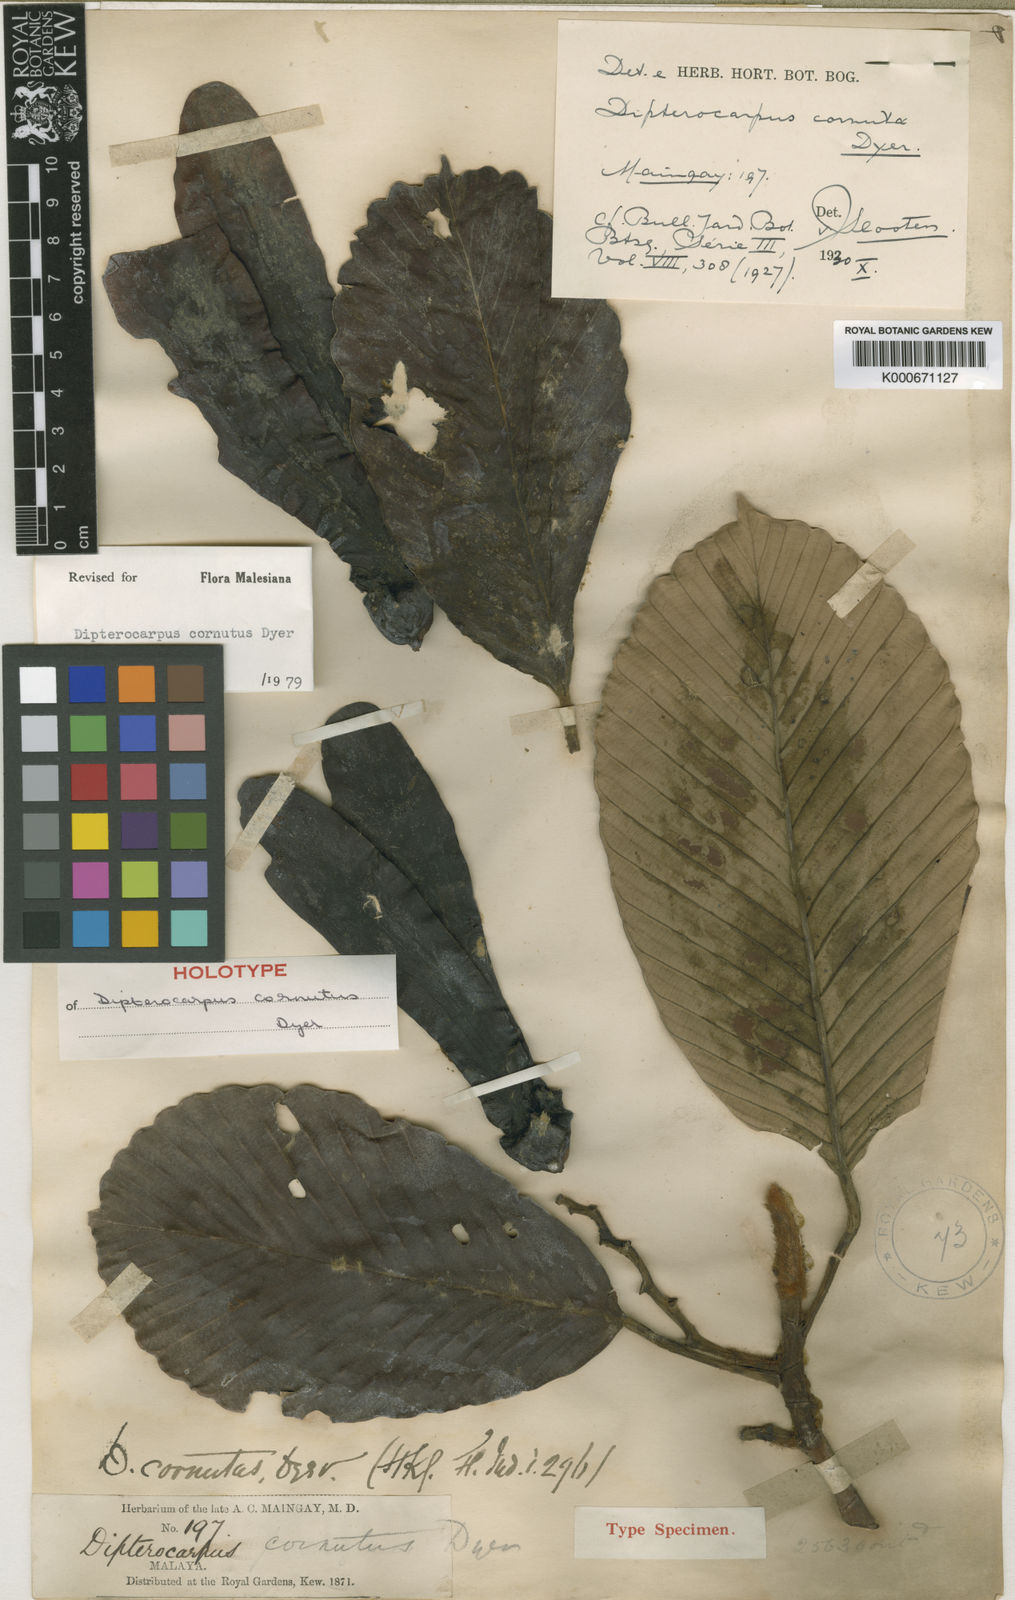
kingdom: Plantae
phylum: Tracheophyta
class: Magnoliopsida
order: Malvales
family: Dipterocarpaceae
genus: Dipterocarpus
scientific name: Dipterocarpus cornutus
